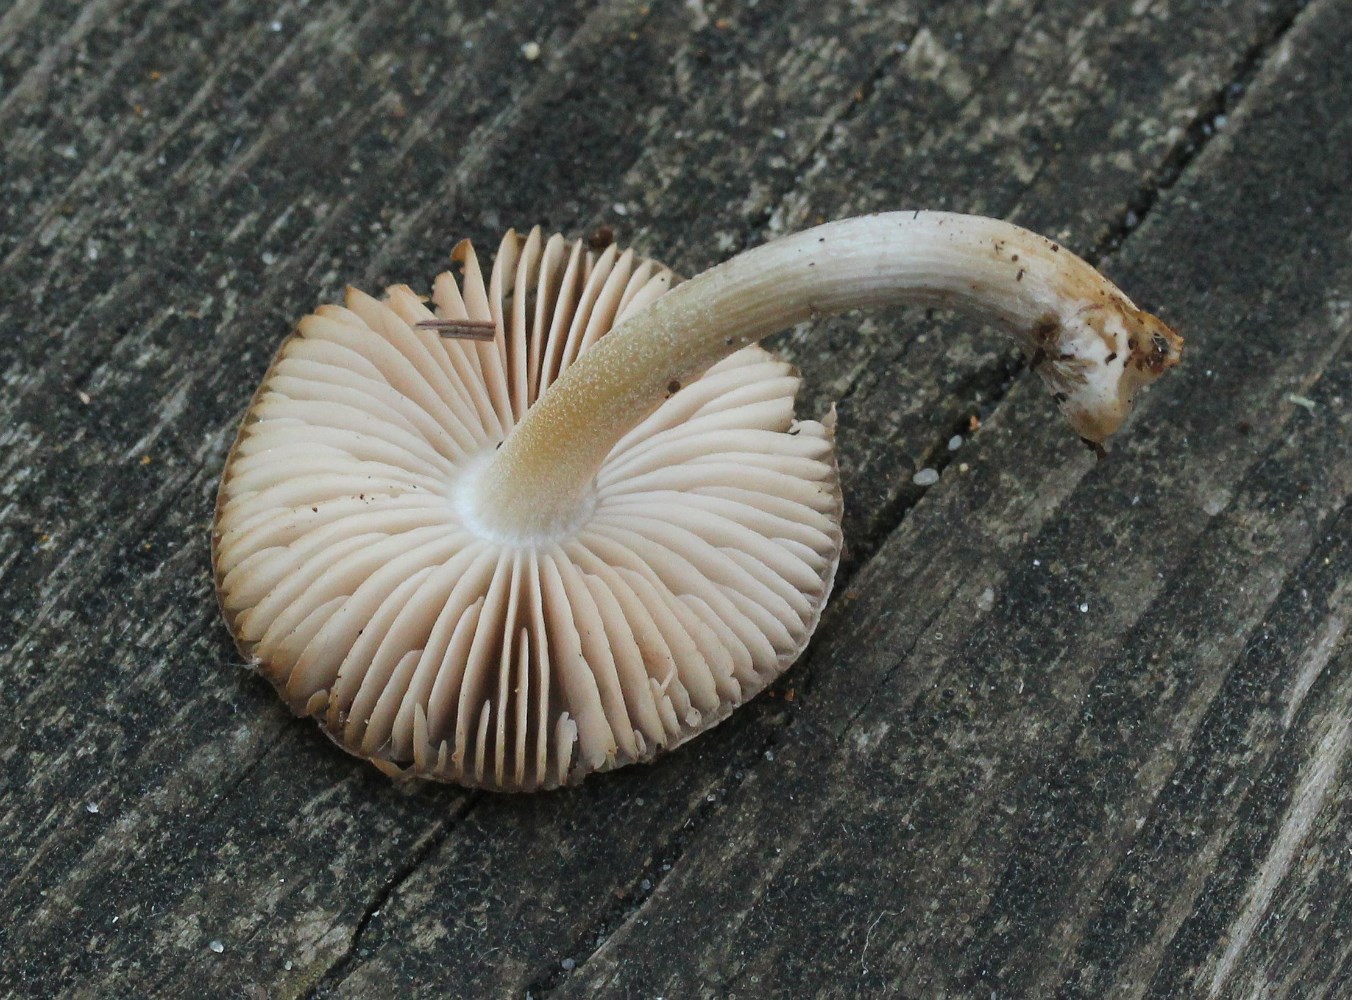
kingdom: Fungi
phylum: Basidiomycota
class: Agaricomycetes
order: Agaricales
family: Pluteaceae
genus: Pluteus
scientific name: Pluteus
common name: gråstokket skærmhat
